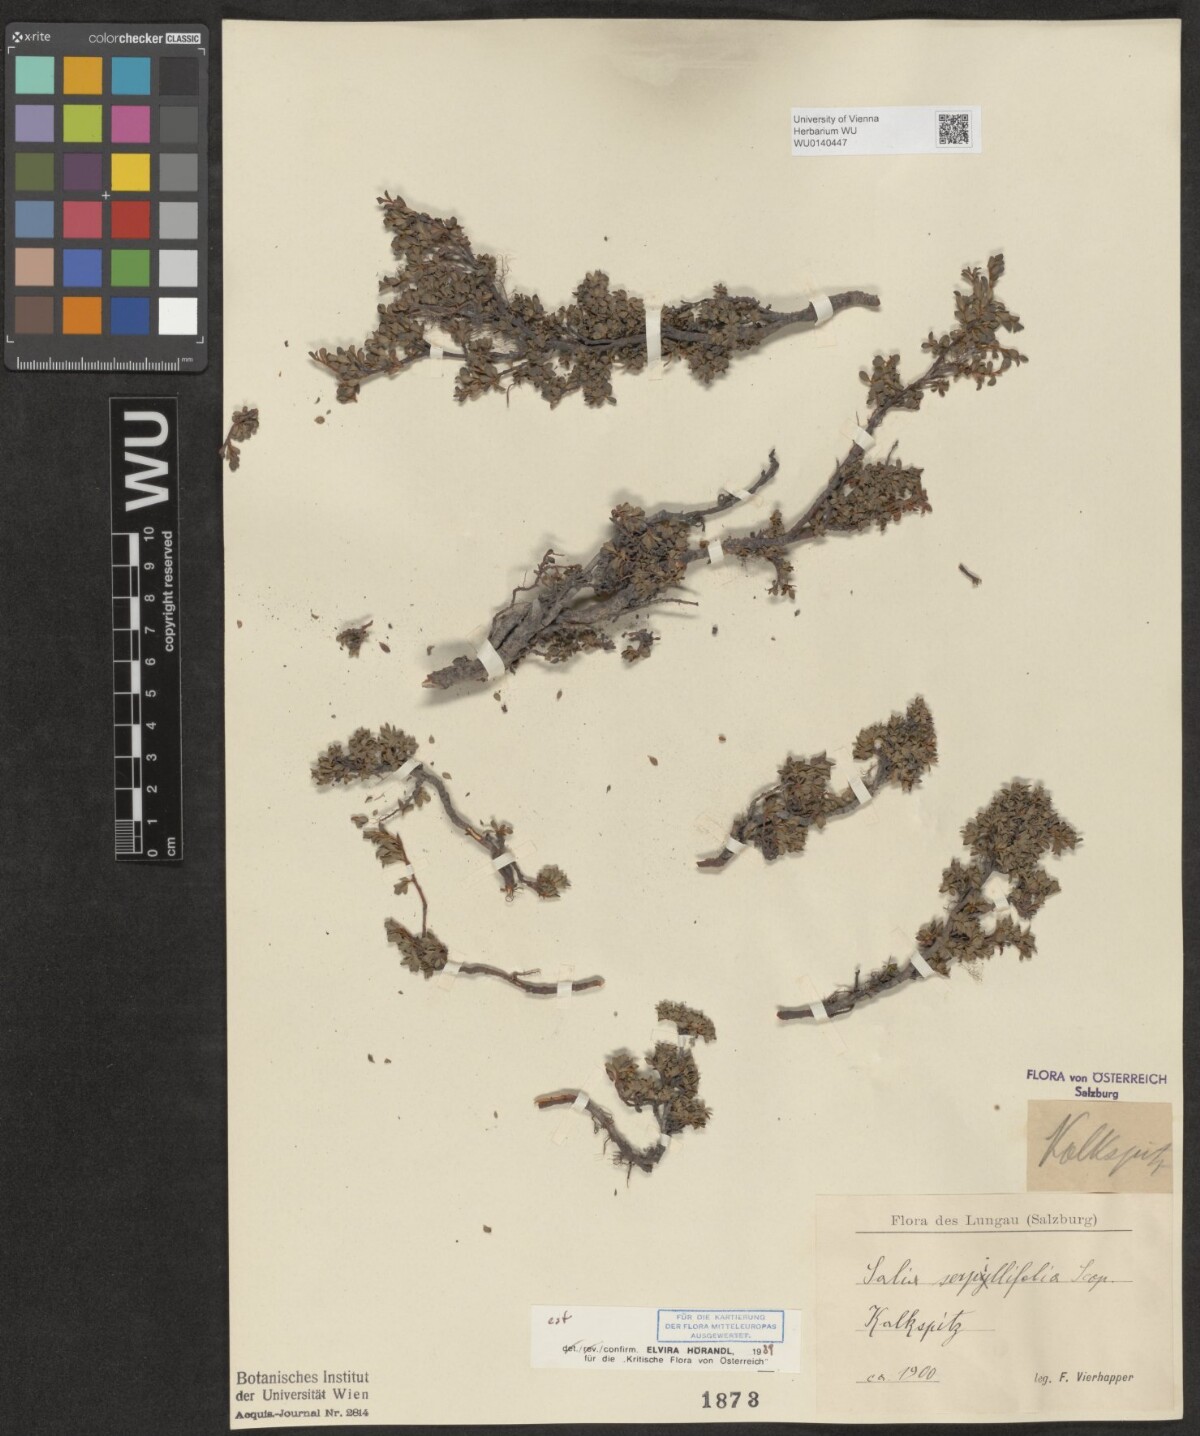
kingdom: Plantae
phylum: Tracheophyta
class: Magnoliopsida
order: Malpighiales
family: Salicaceae
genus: Salix
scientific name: Salix serpillifolia
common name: Thyme-leaf willow
